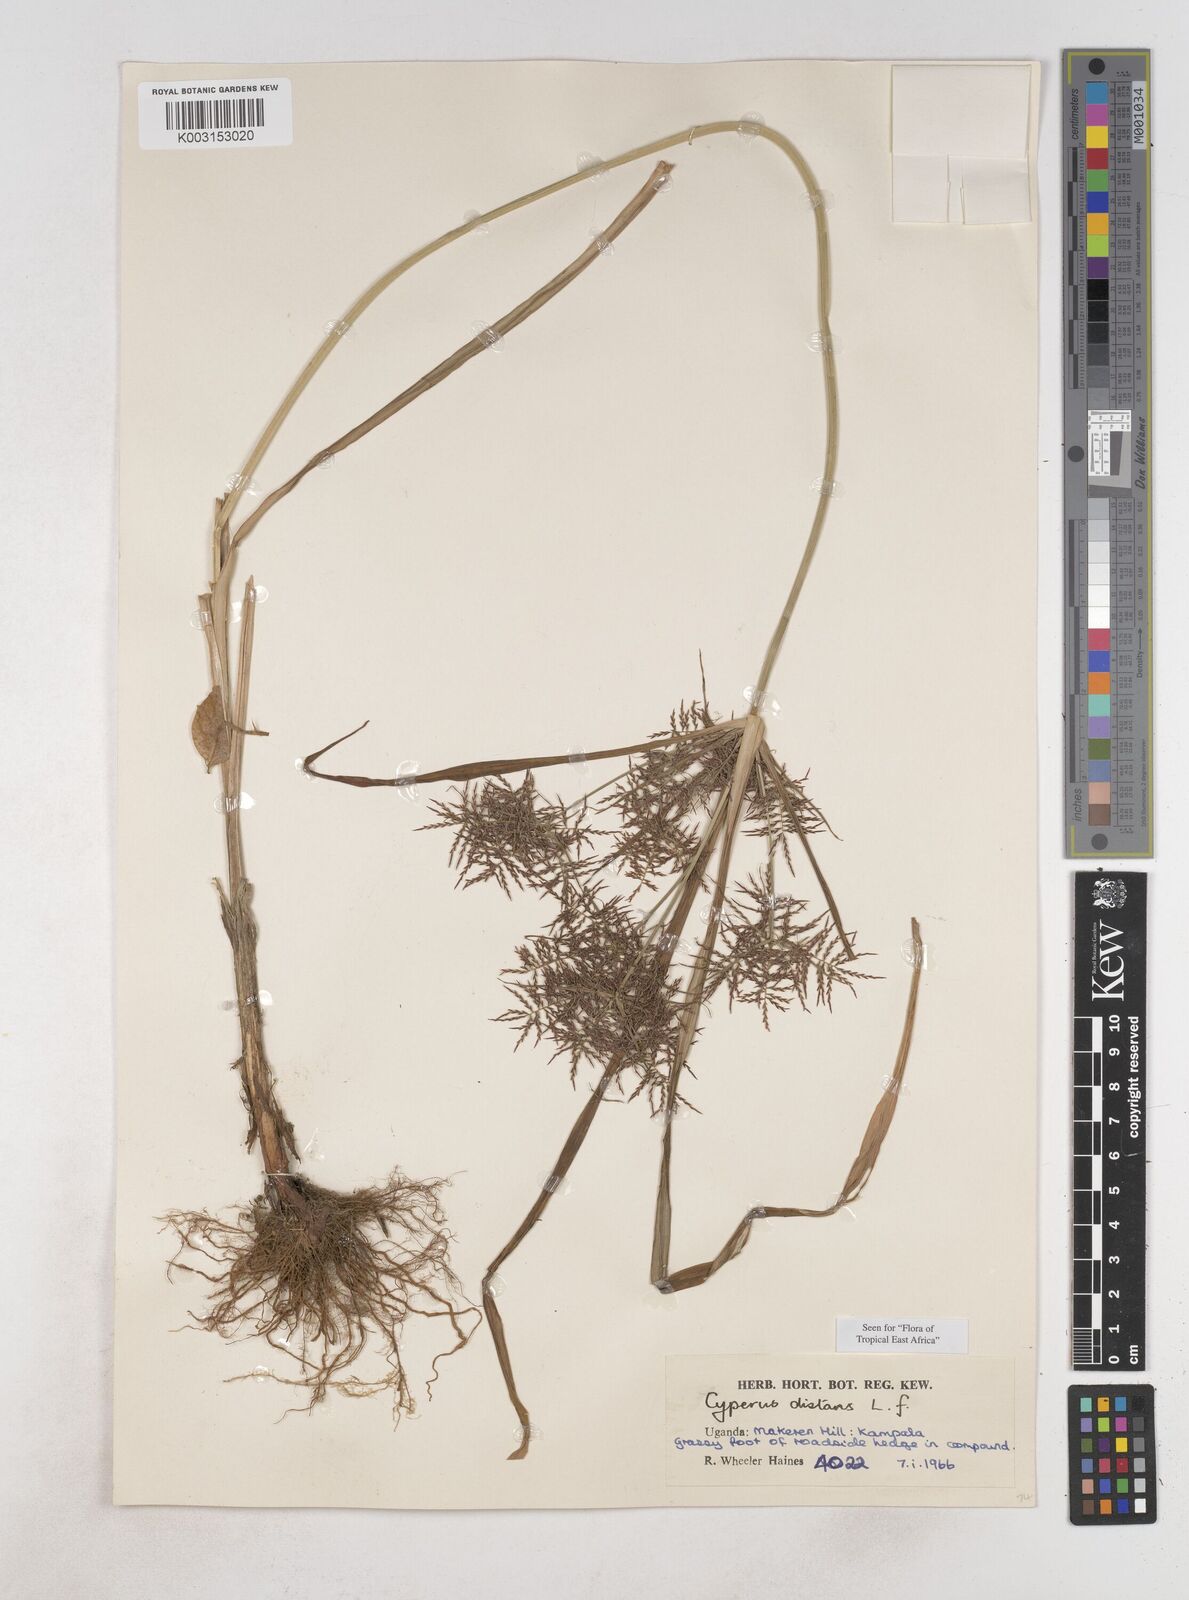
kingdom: Plantae
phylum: Tracheophyta
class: Liliopsida
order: Poales
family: Cyperaceae
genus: Cyperus
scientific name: Cyperus distans
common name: Slender cyperus
